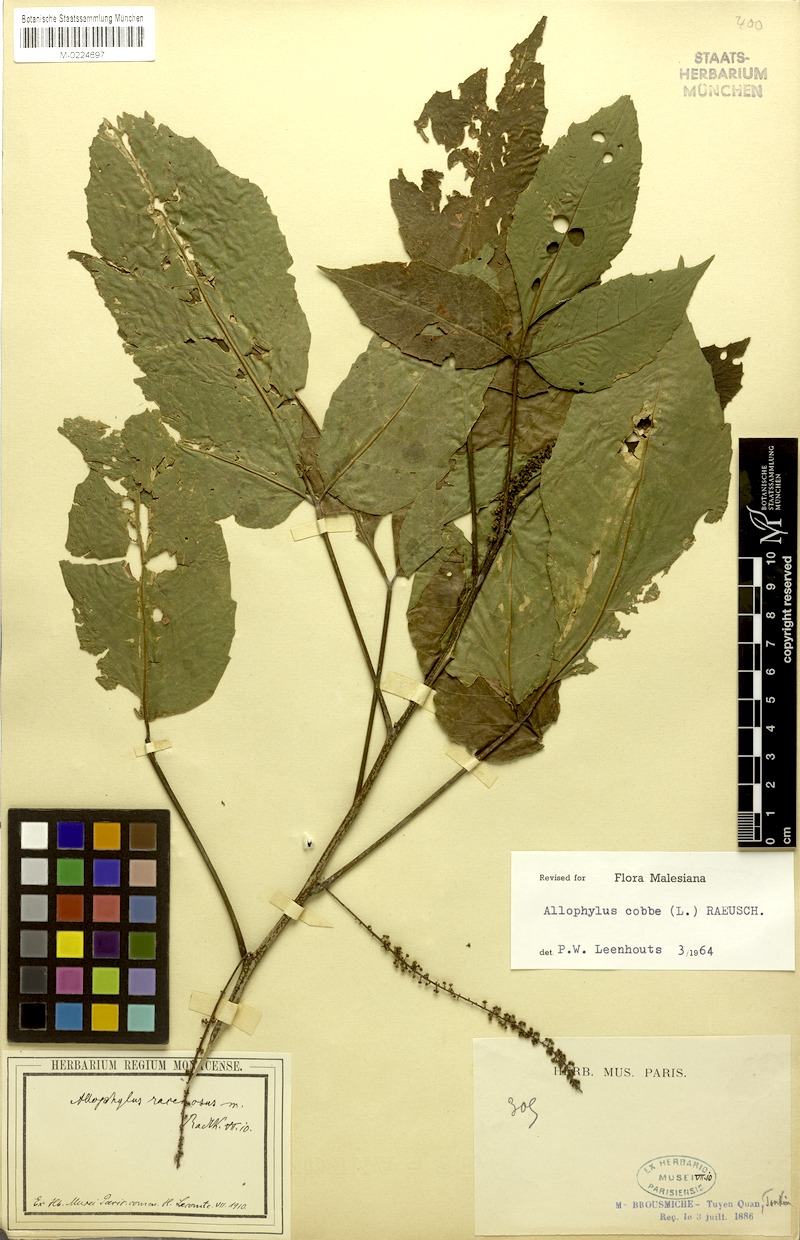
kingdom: Plantae
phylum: Tracheophyta
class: Magnoliopsida
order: Sapindales
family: Sapindaceae
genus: Allophylus
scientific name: Allophylus racemosus
